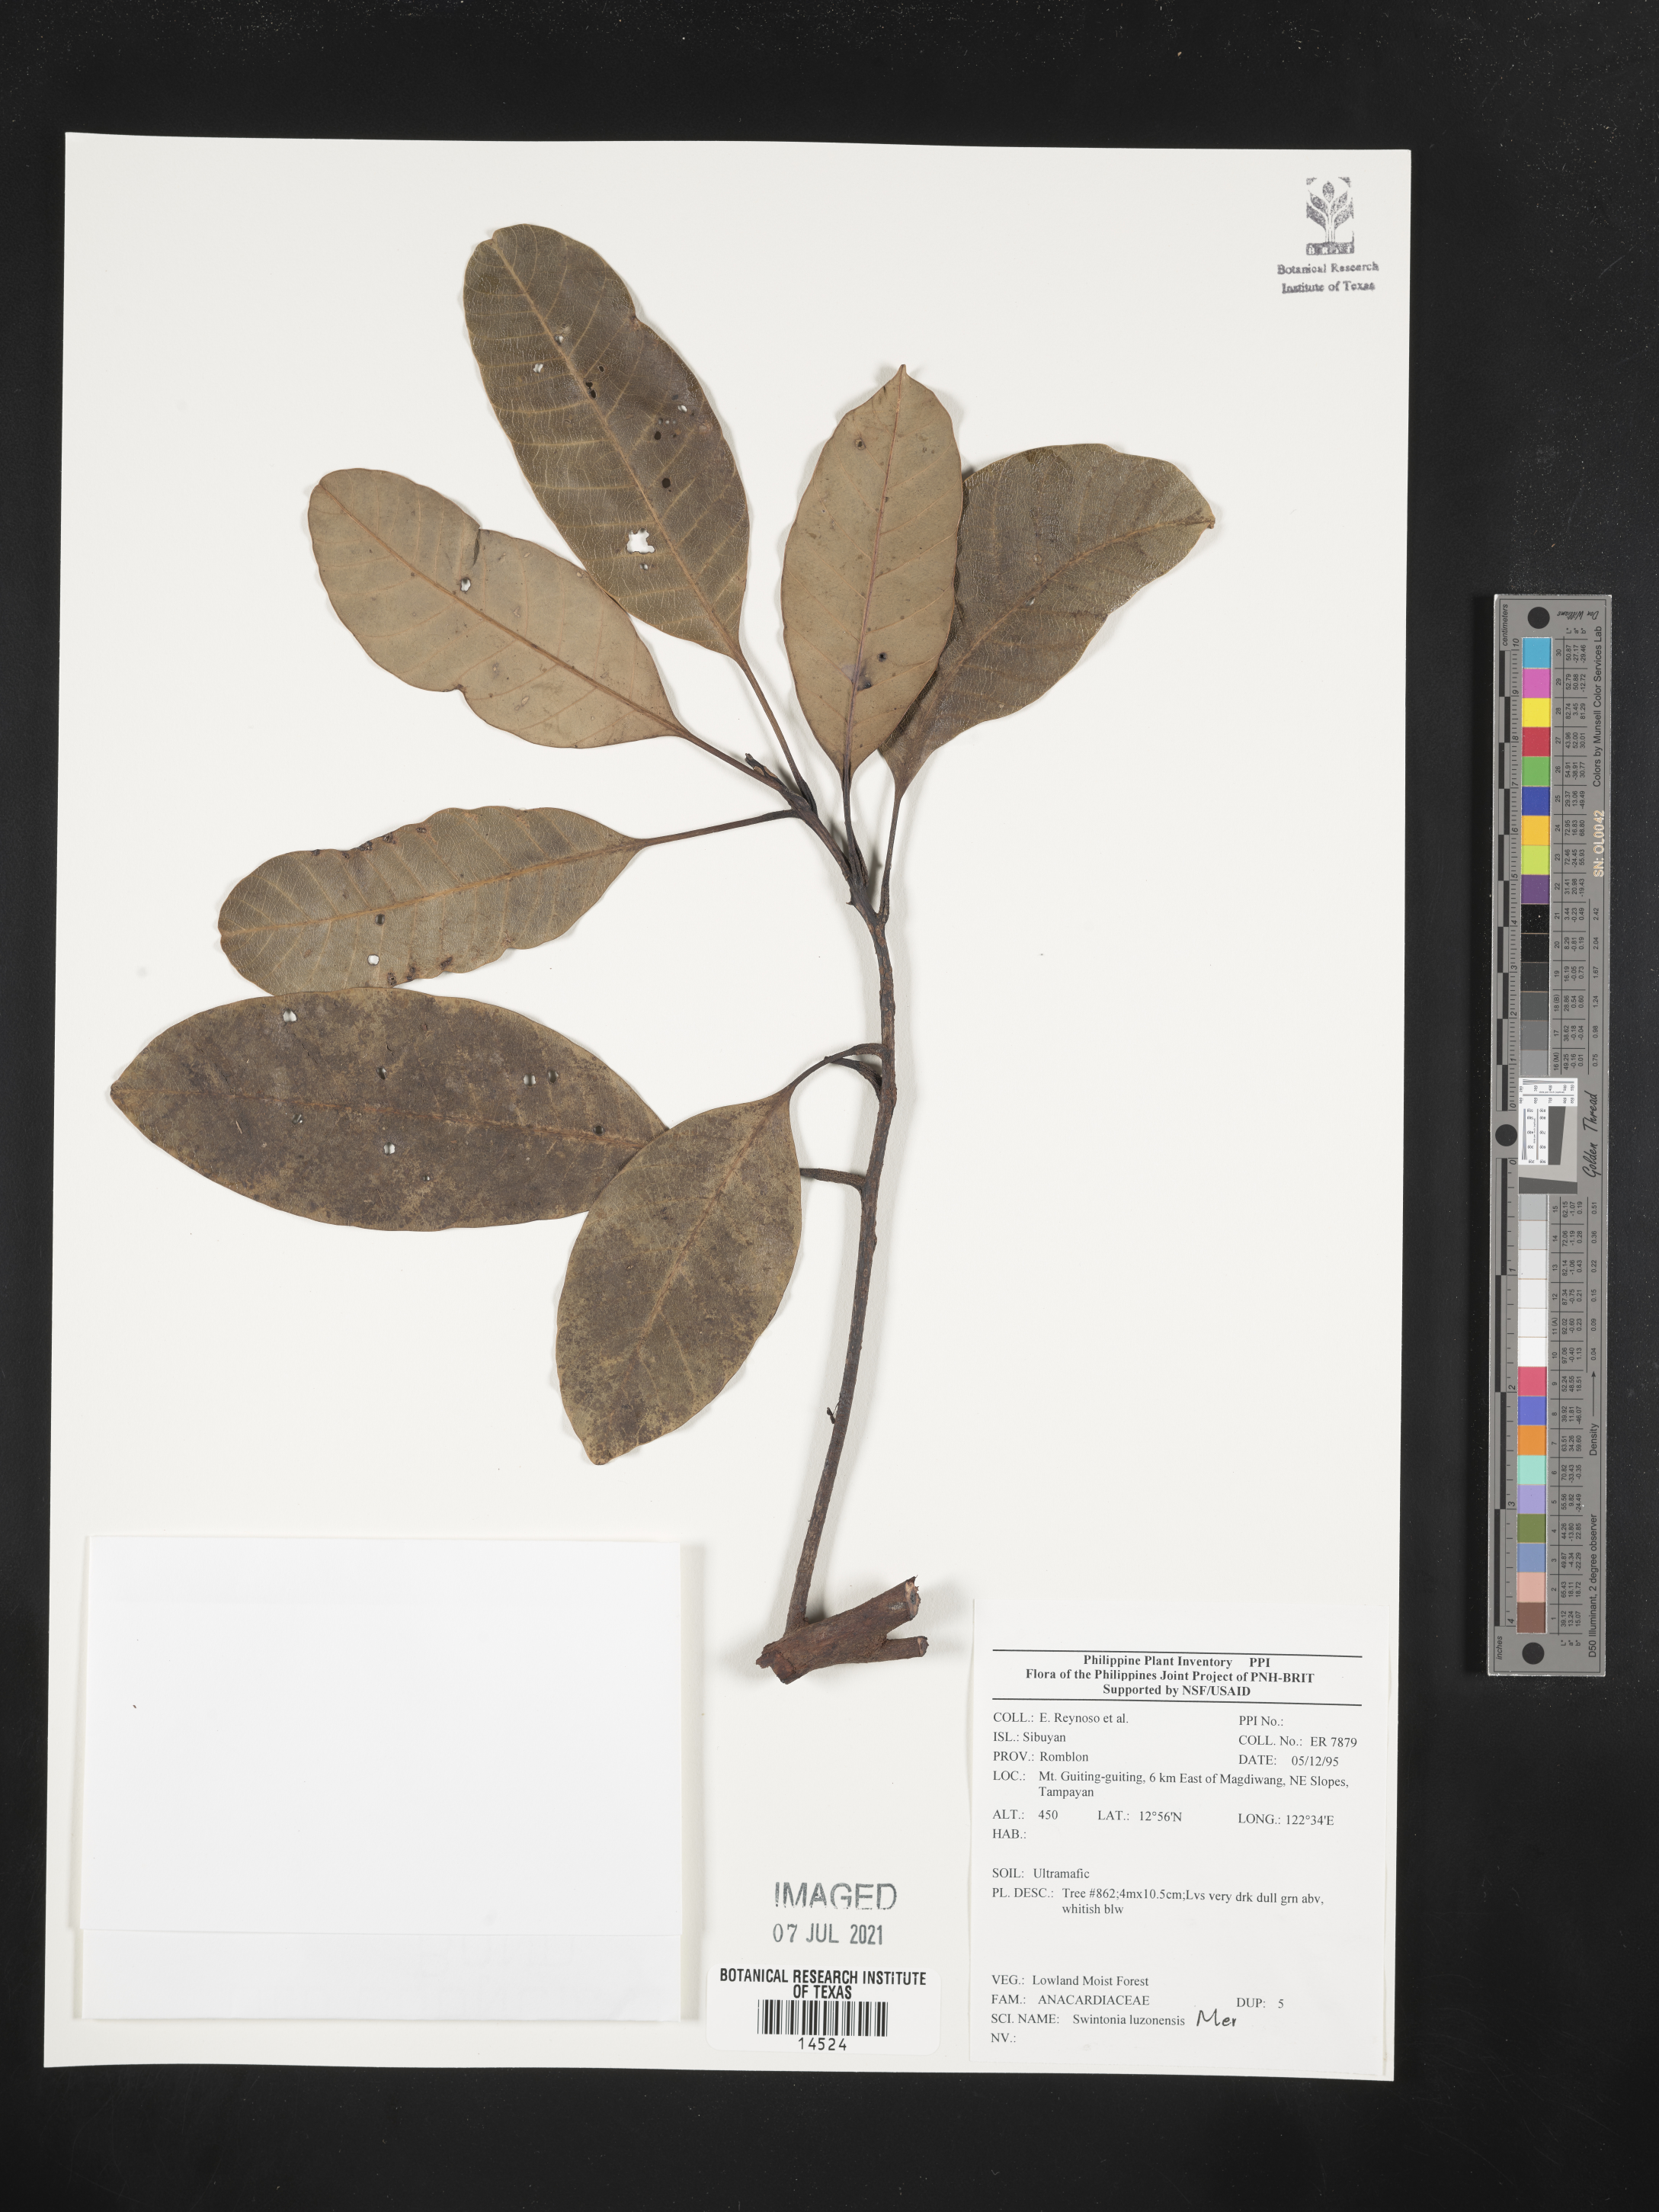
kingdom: Plantae
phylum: Tracheophyta
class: Magnoliopsida
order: Sapindales
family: Anacardiaceae
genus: Swintonia
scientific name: Swintonia acuta
